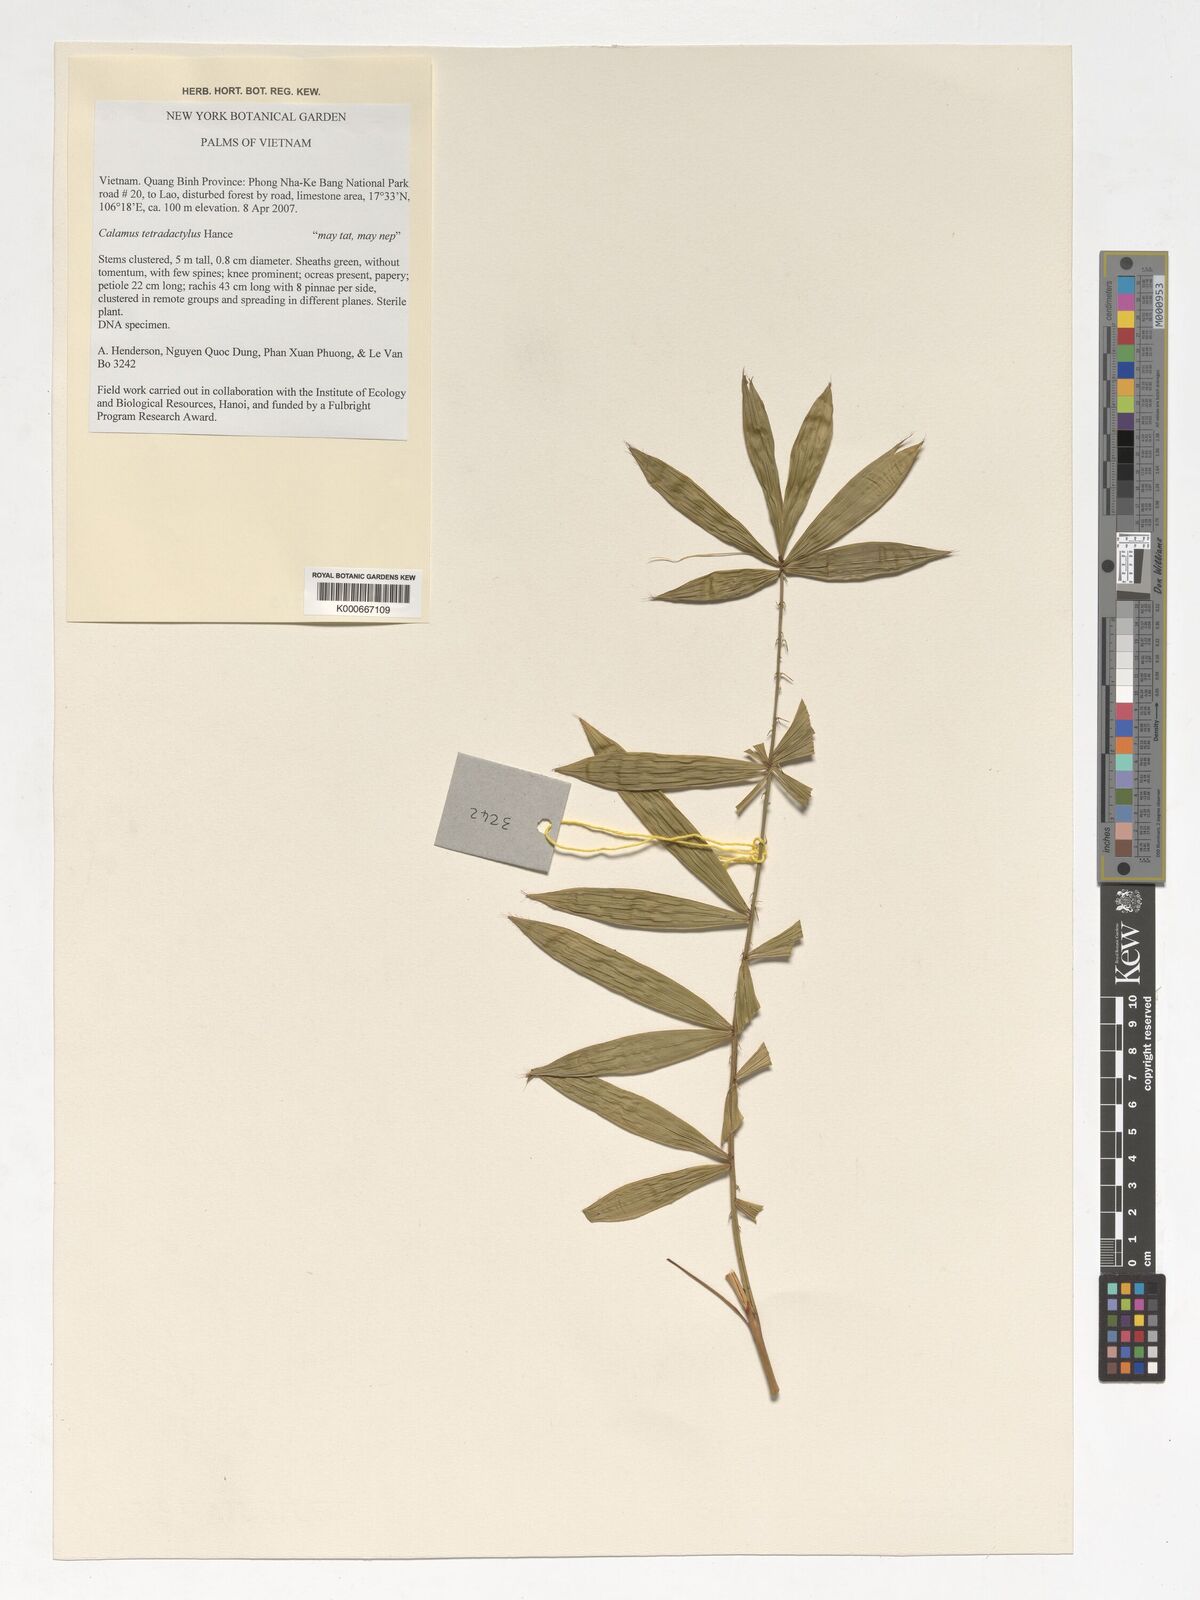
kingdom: Plantae
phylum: Tracheophyta
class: Liliopsida
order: Arecales
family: Arecaceae
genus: Calamus
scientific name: Calamus tetradactylus
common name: White rattan
